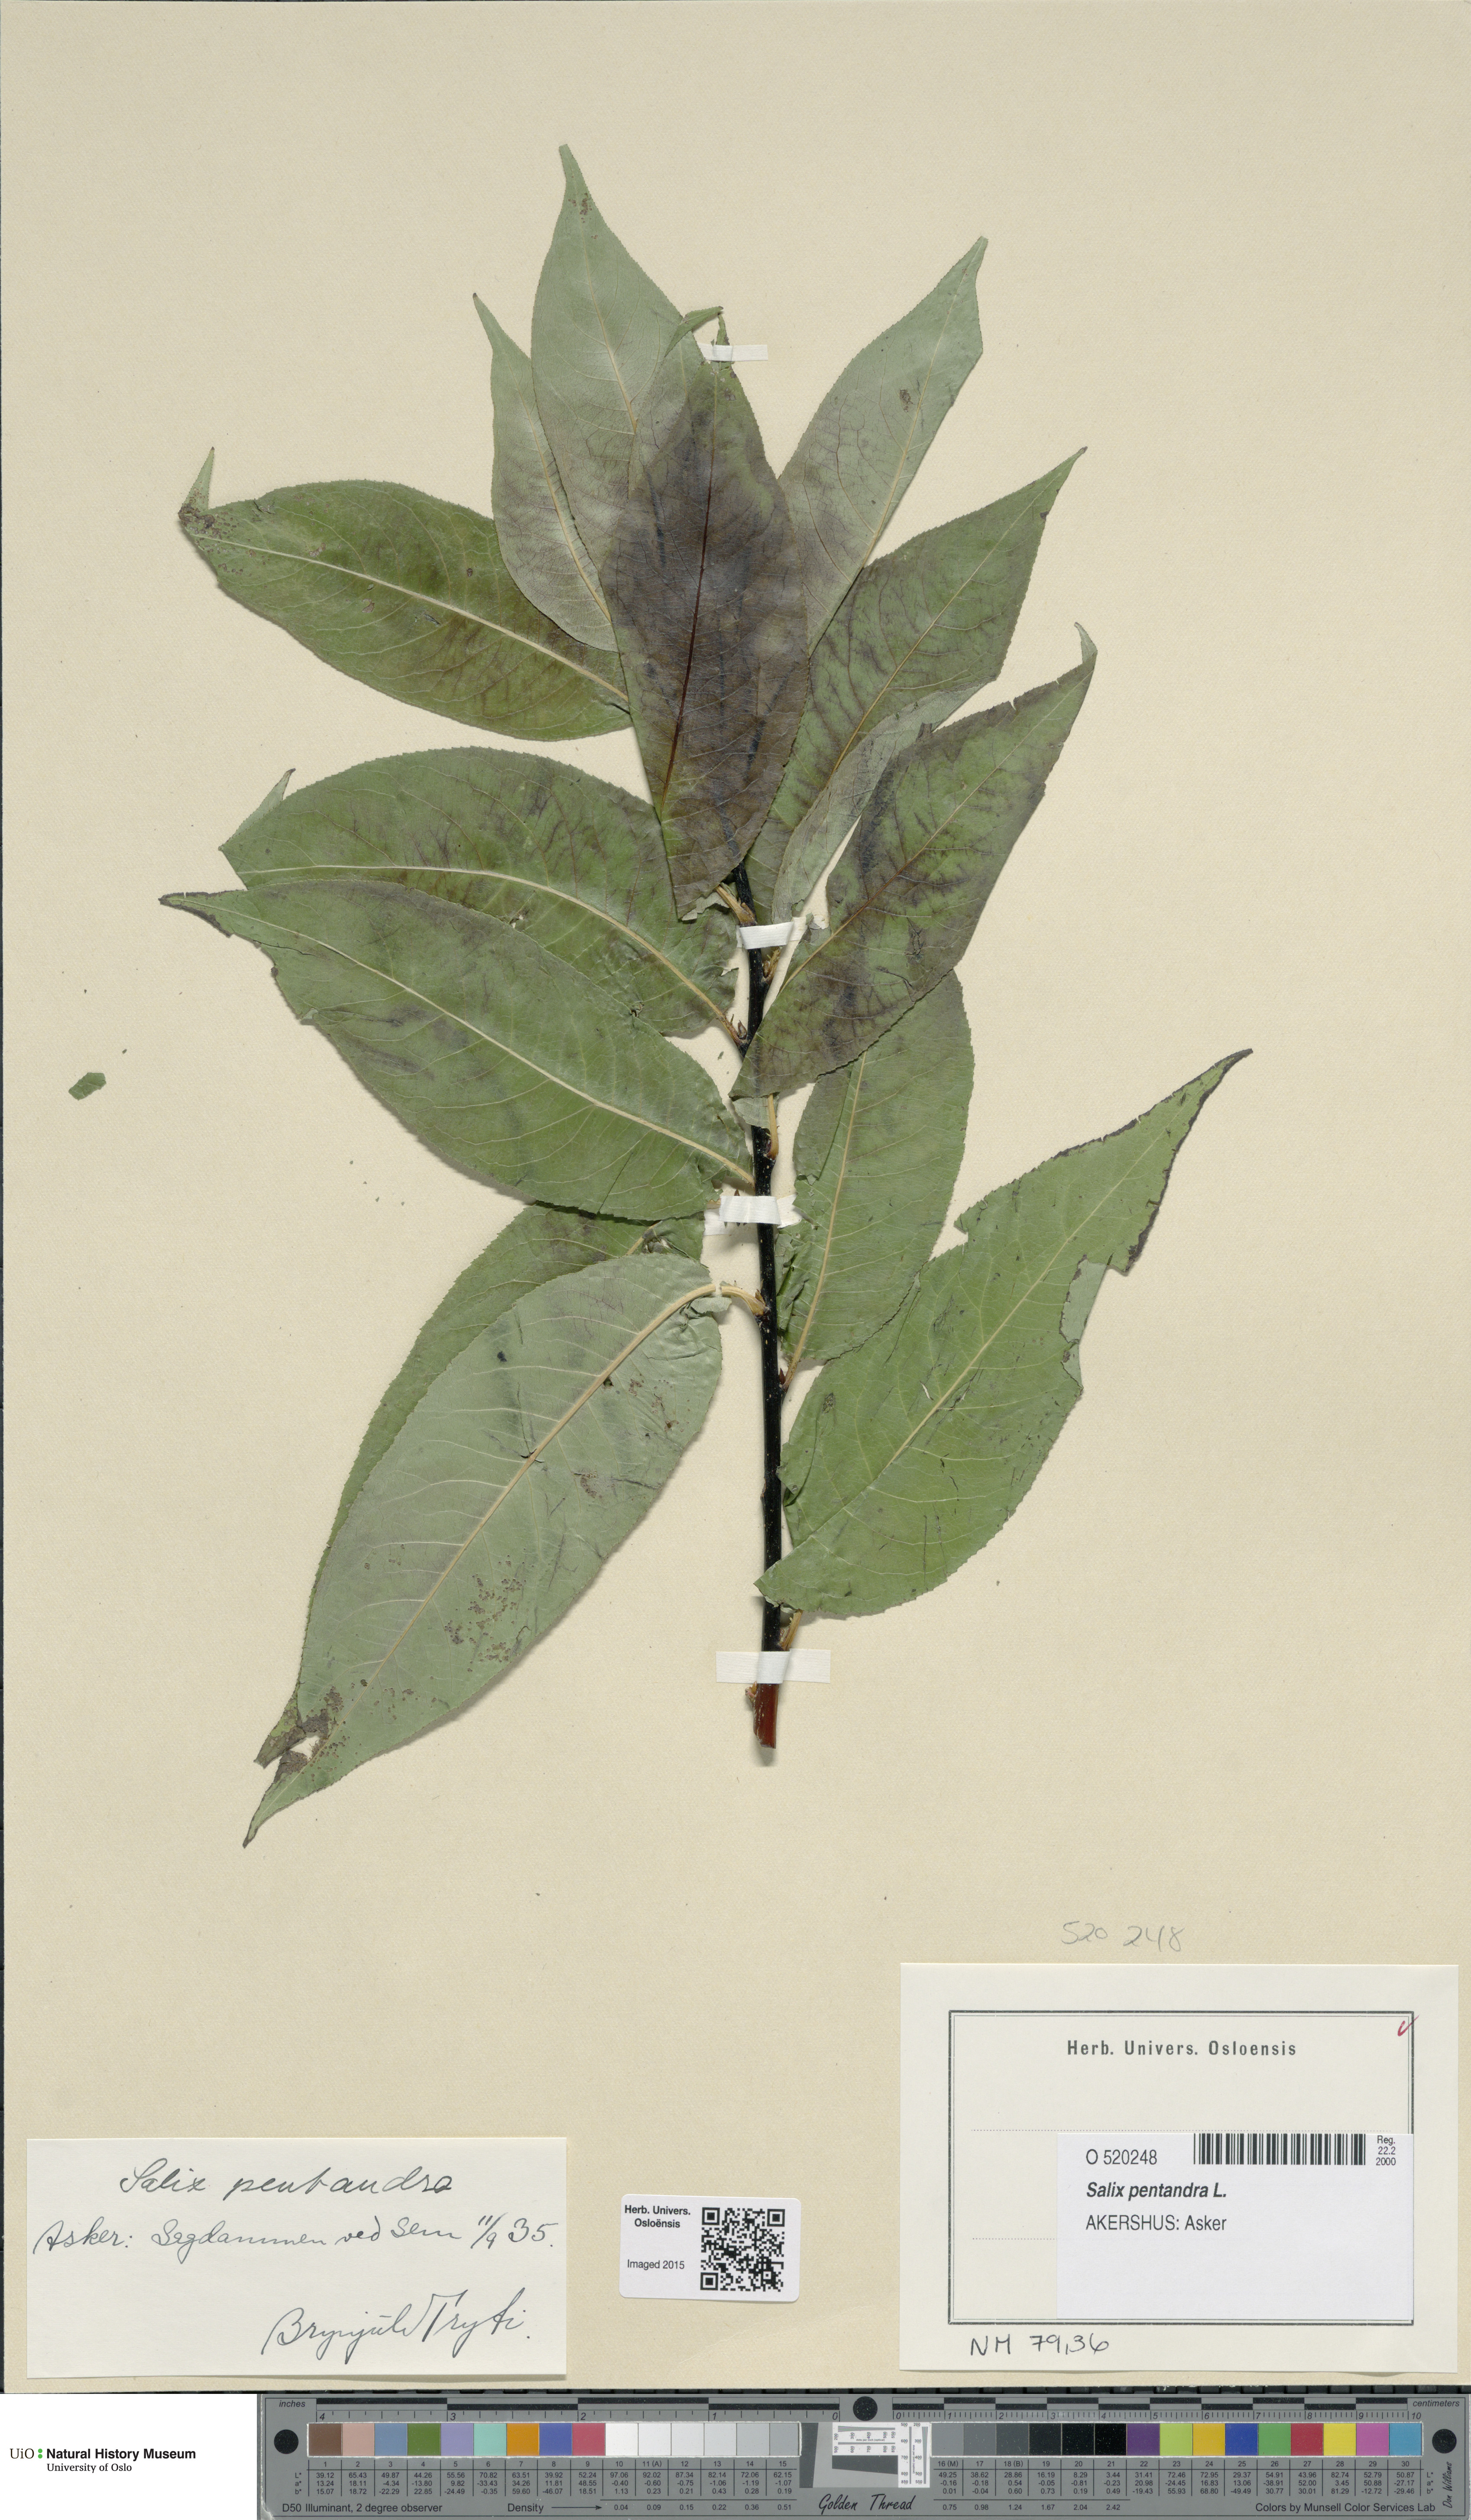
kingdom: Plantae
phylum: Tracheophyta
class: Magnoliopsida
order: Malpighiales
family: Salicaceae
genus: Salix
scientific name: Salix pentandra
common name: Bay willow
